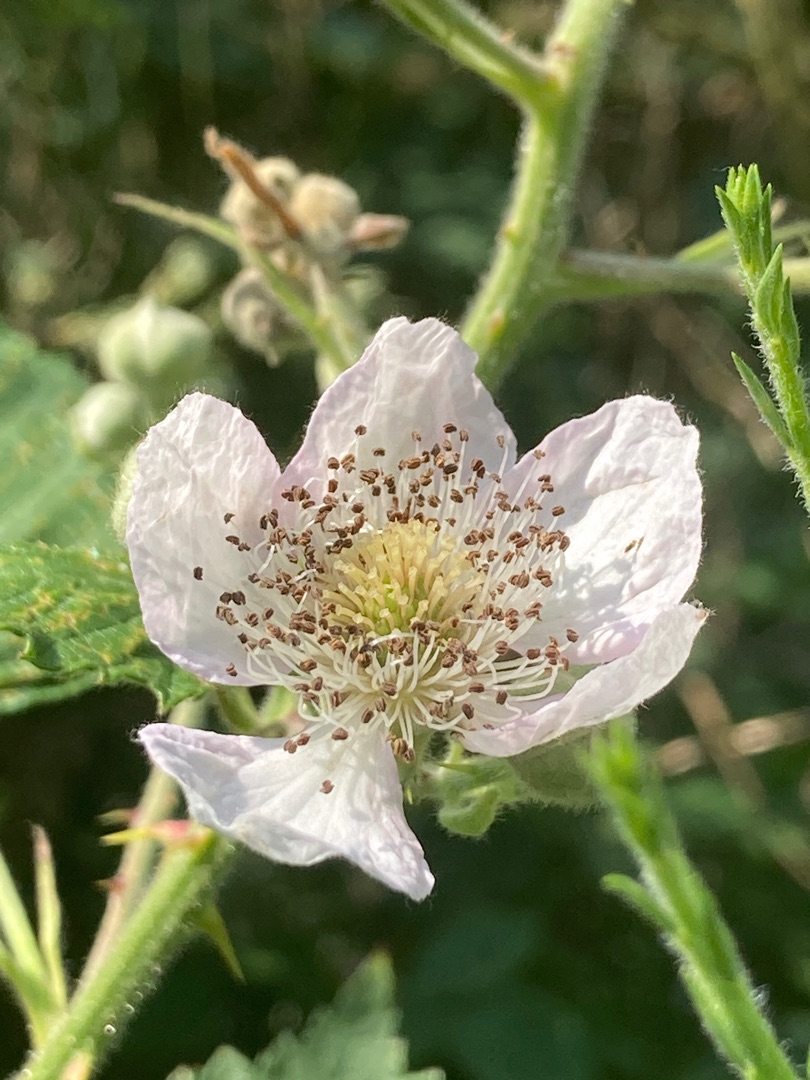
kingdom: Plantae
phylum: Tracheophyta
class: Magnoliopsida
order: Rosales
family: Rosaceae
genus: Rubus
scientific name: Rubus armeniacus
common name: Armensk brombær
